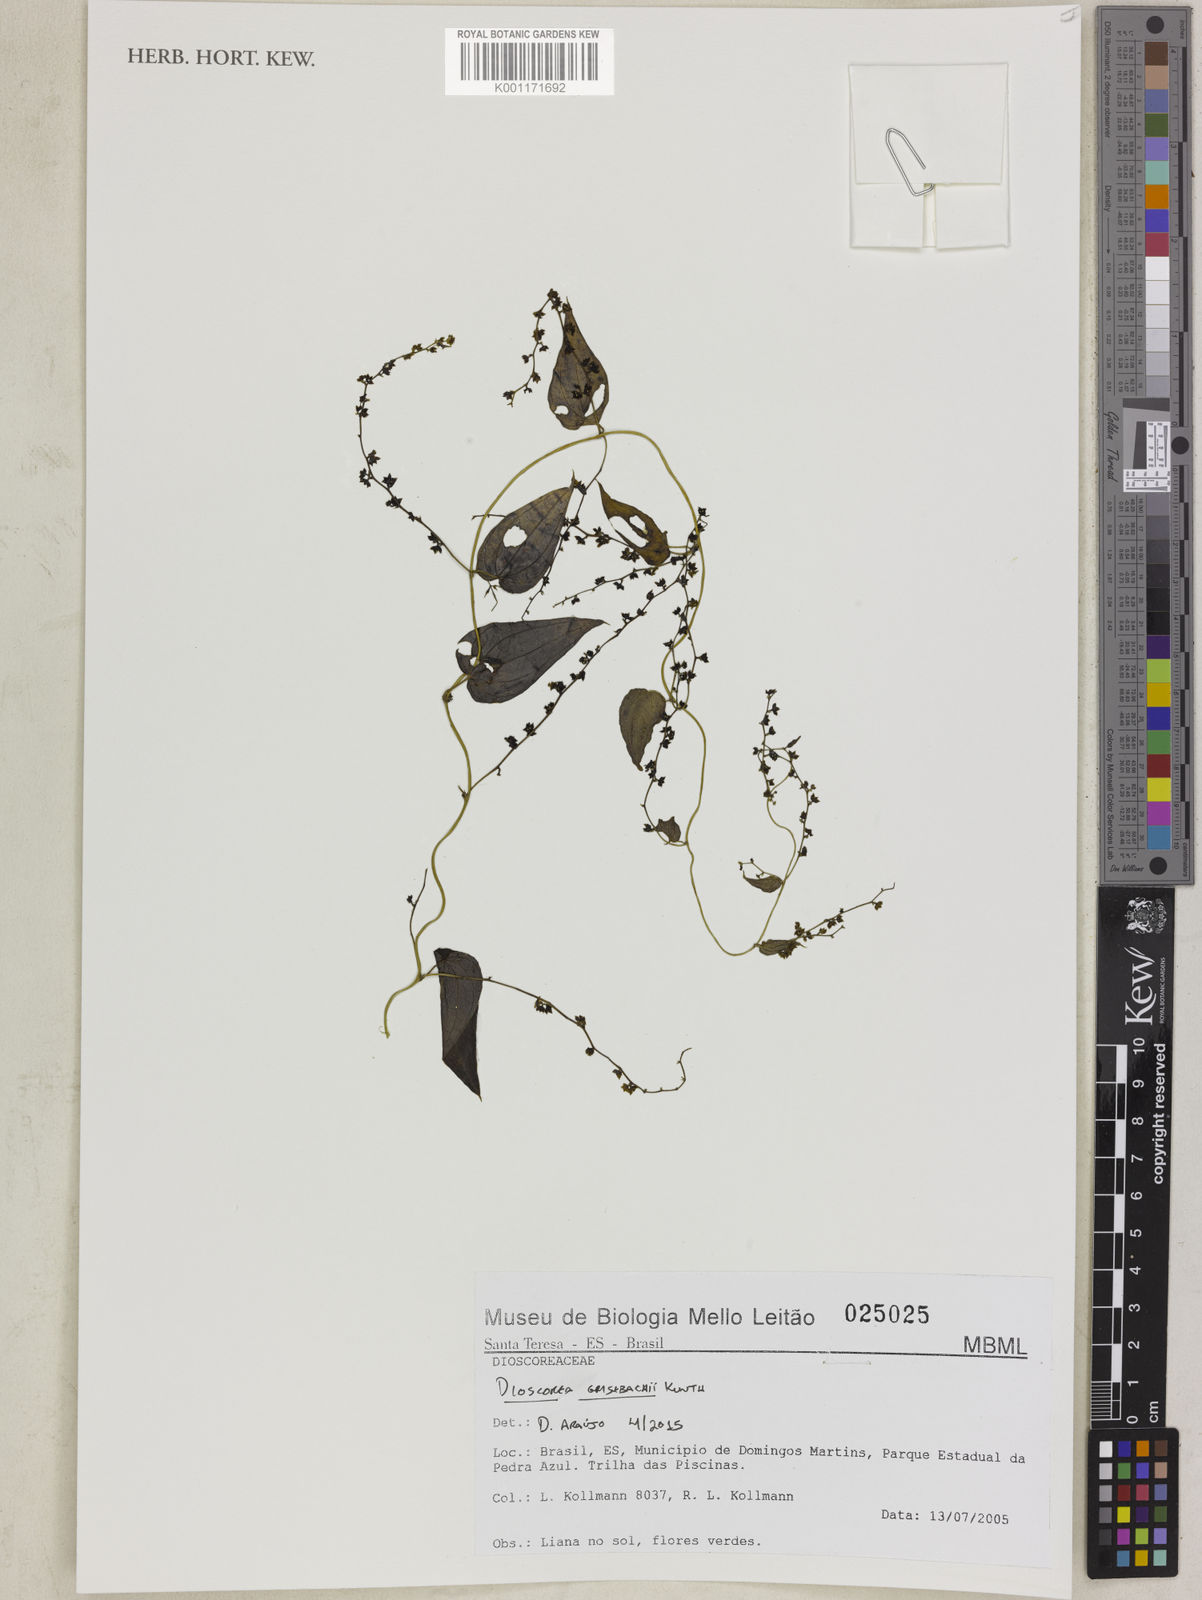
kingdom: Plantae
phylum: Tracheophyta
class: Liliopsida
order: Dioscoreales
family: Dioscoreaceae
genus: Dioscorea
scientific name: Dioscorea grisebachii
